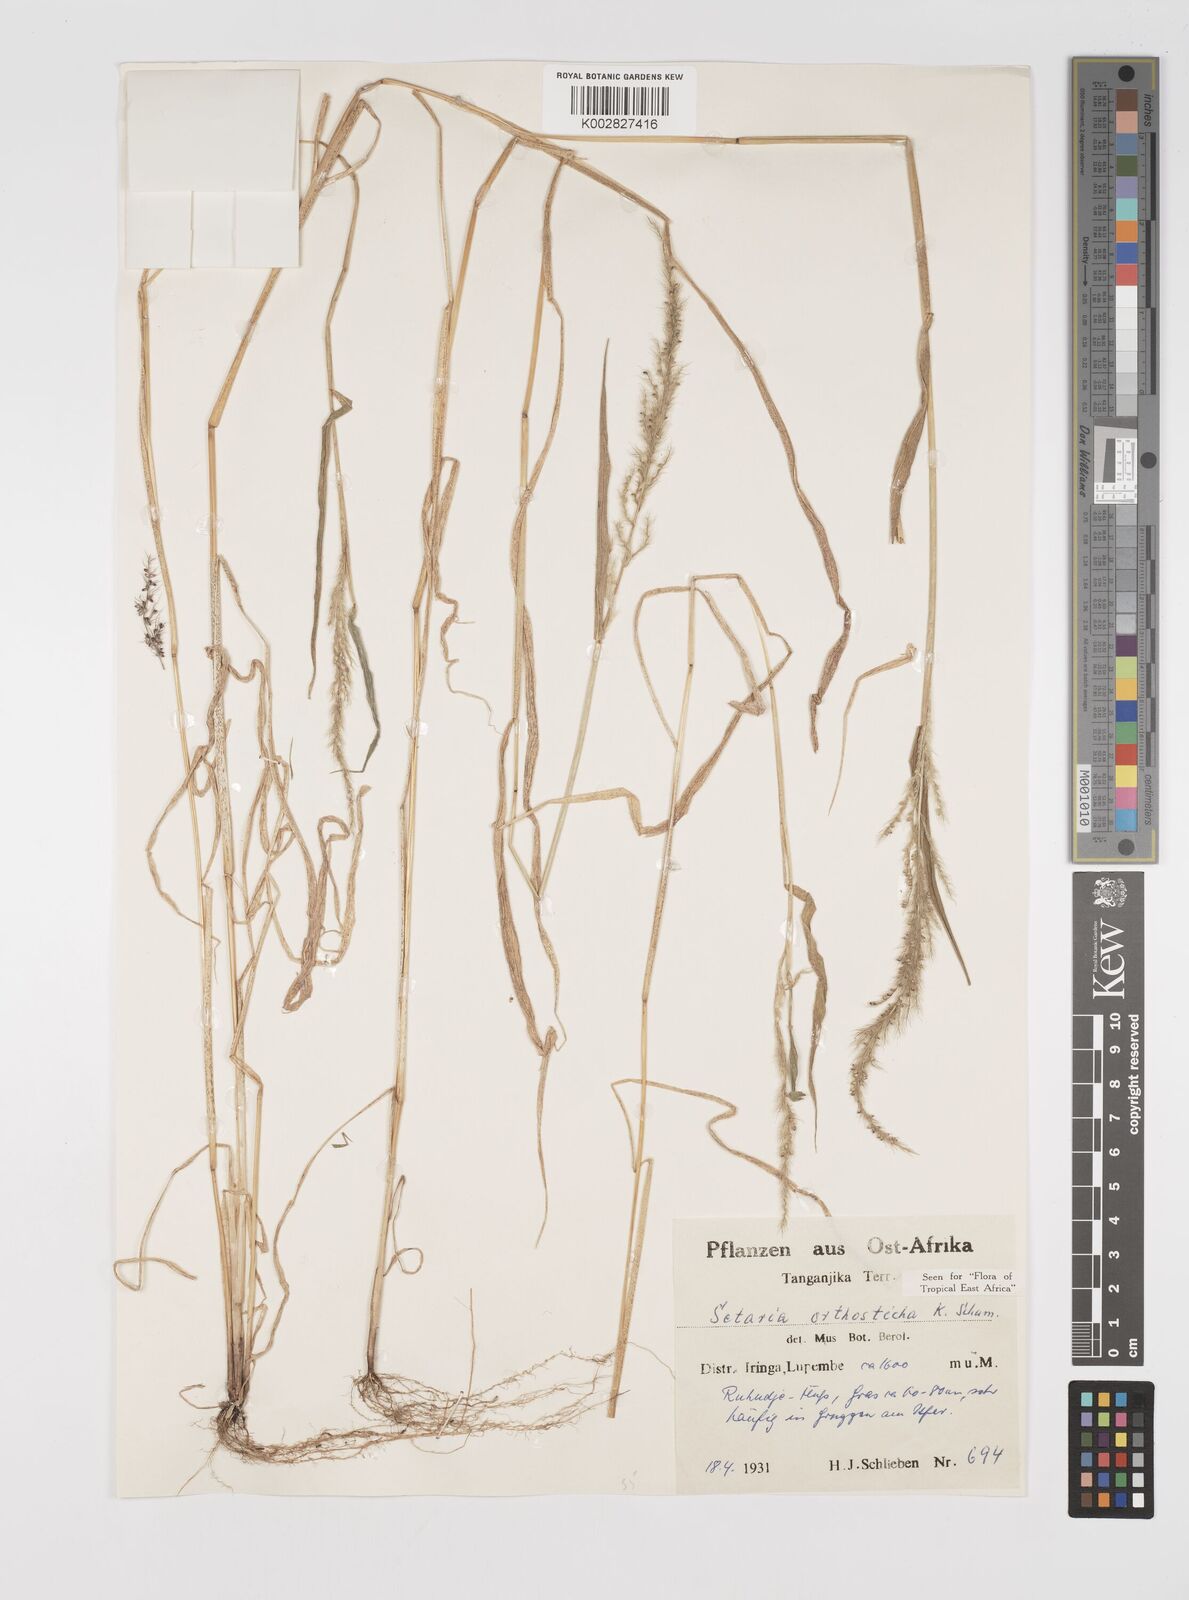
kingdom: Plantae
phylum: Tracheophyta
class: Liliopsida
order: Poales
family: Poaceae
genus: Setaria
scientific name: Setaria orthosticha
